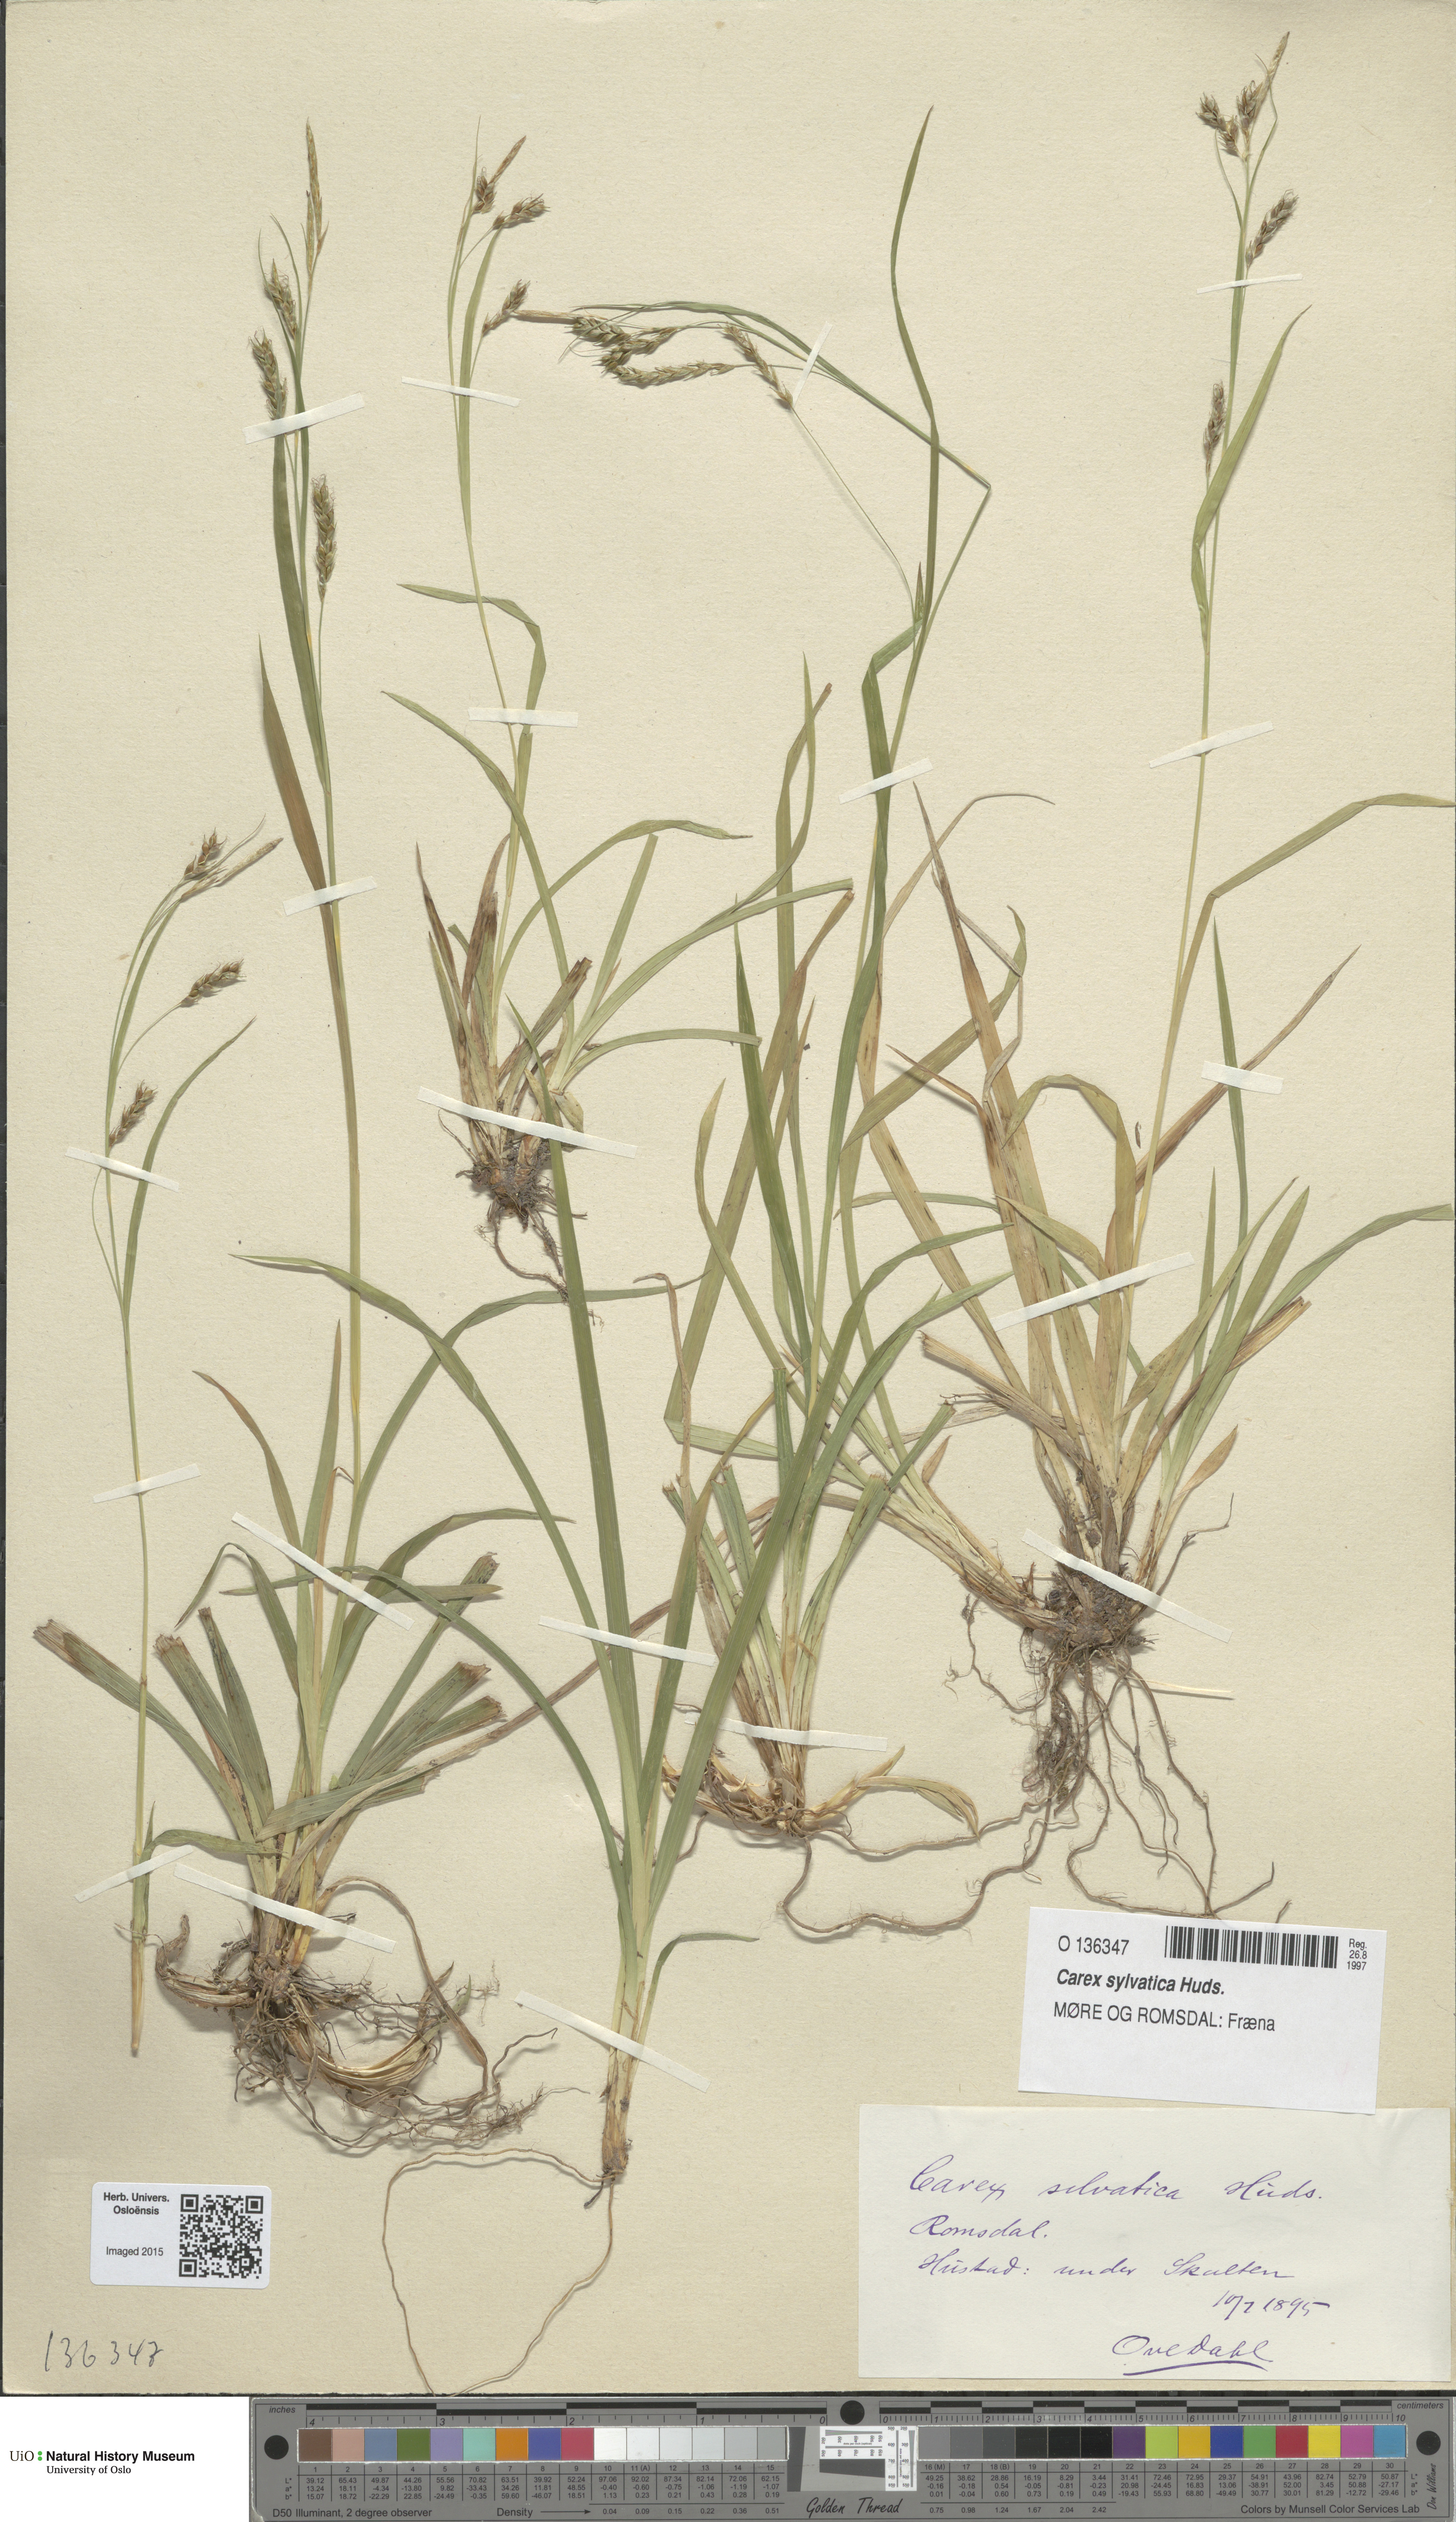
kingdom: Plantae
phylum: Tracheophyta
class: Liliopsida
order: Poales
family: Cyperaceae
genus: Carex
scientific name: Carex sylvatica
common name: Wood-sedge
